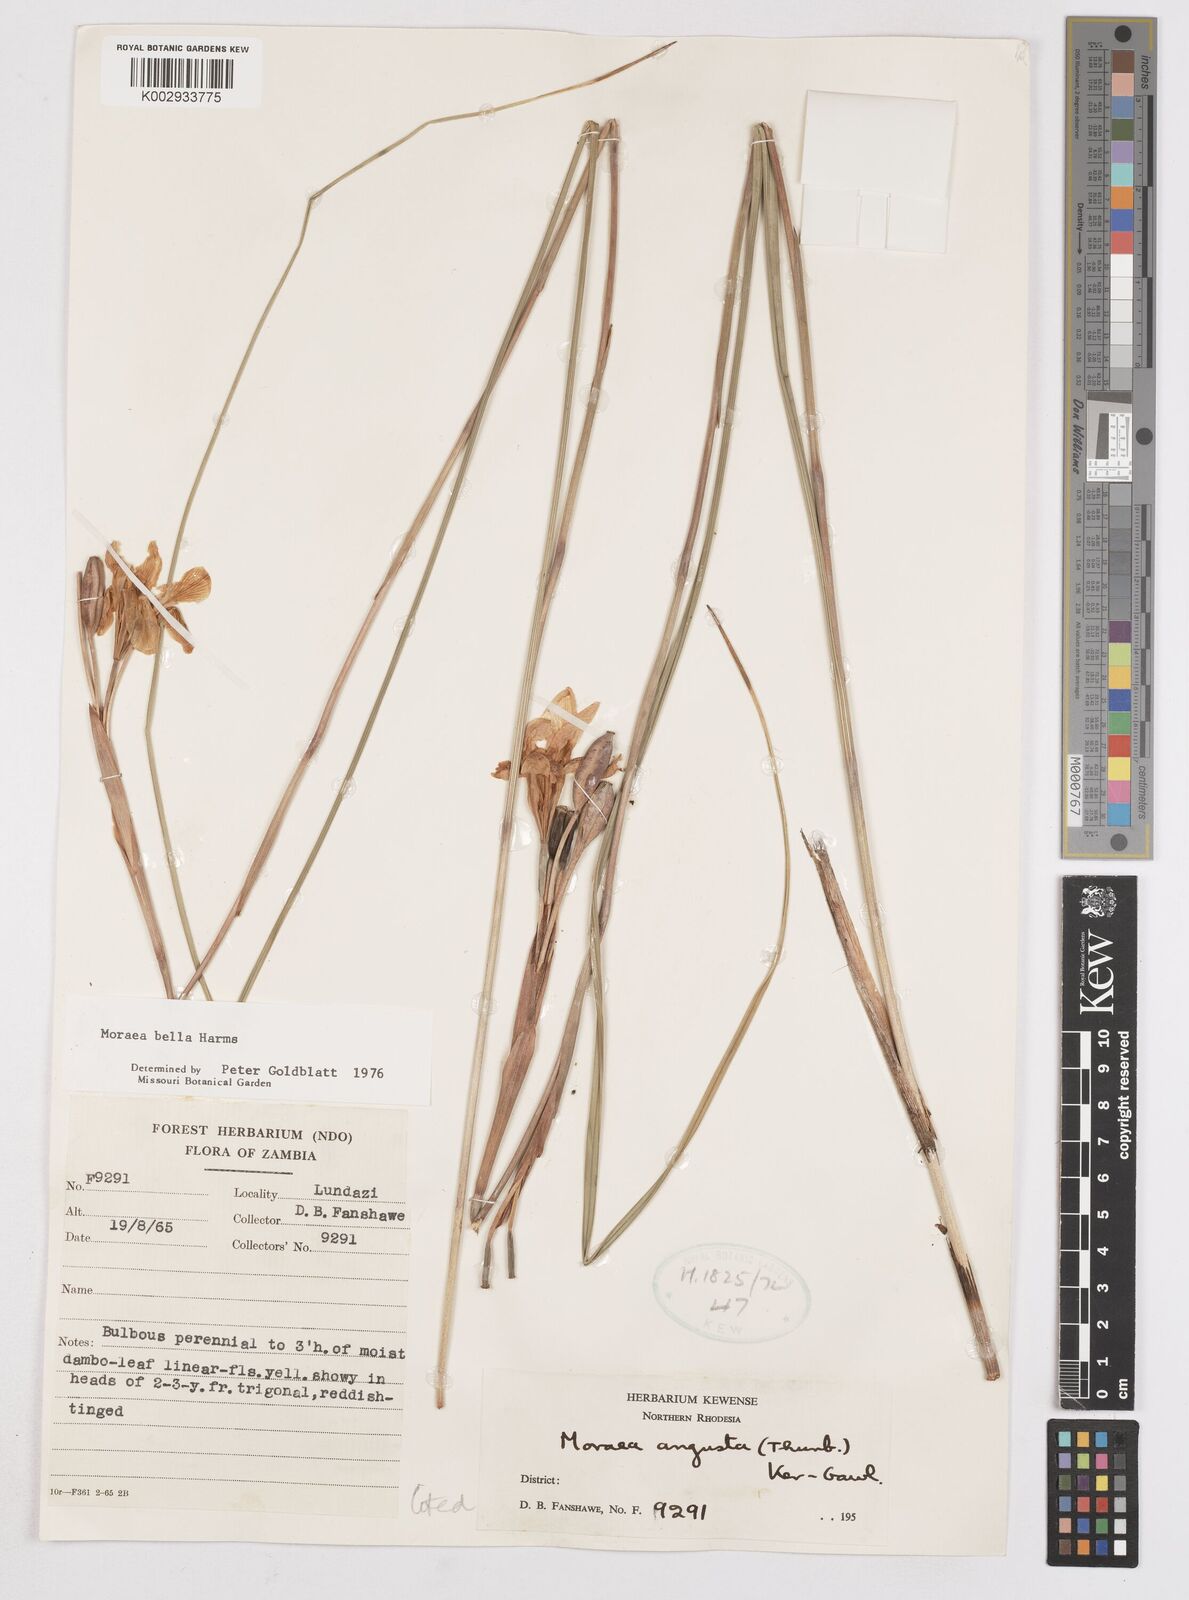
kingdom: Plantae
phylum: Tracheophyta
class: Liliopsida
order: Asparagales
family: Iridaceae
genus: Moraea
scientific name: Moraea bella
